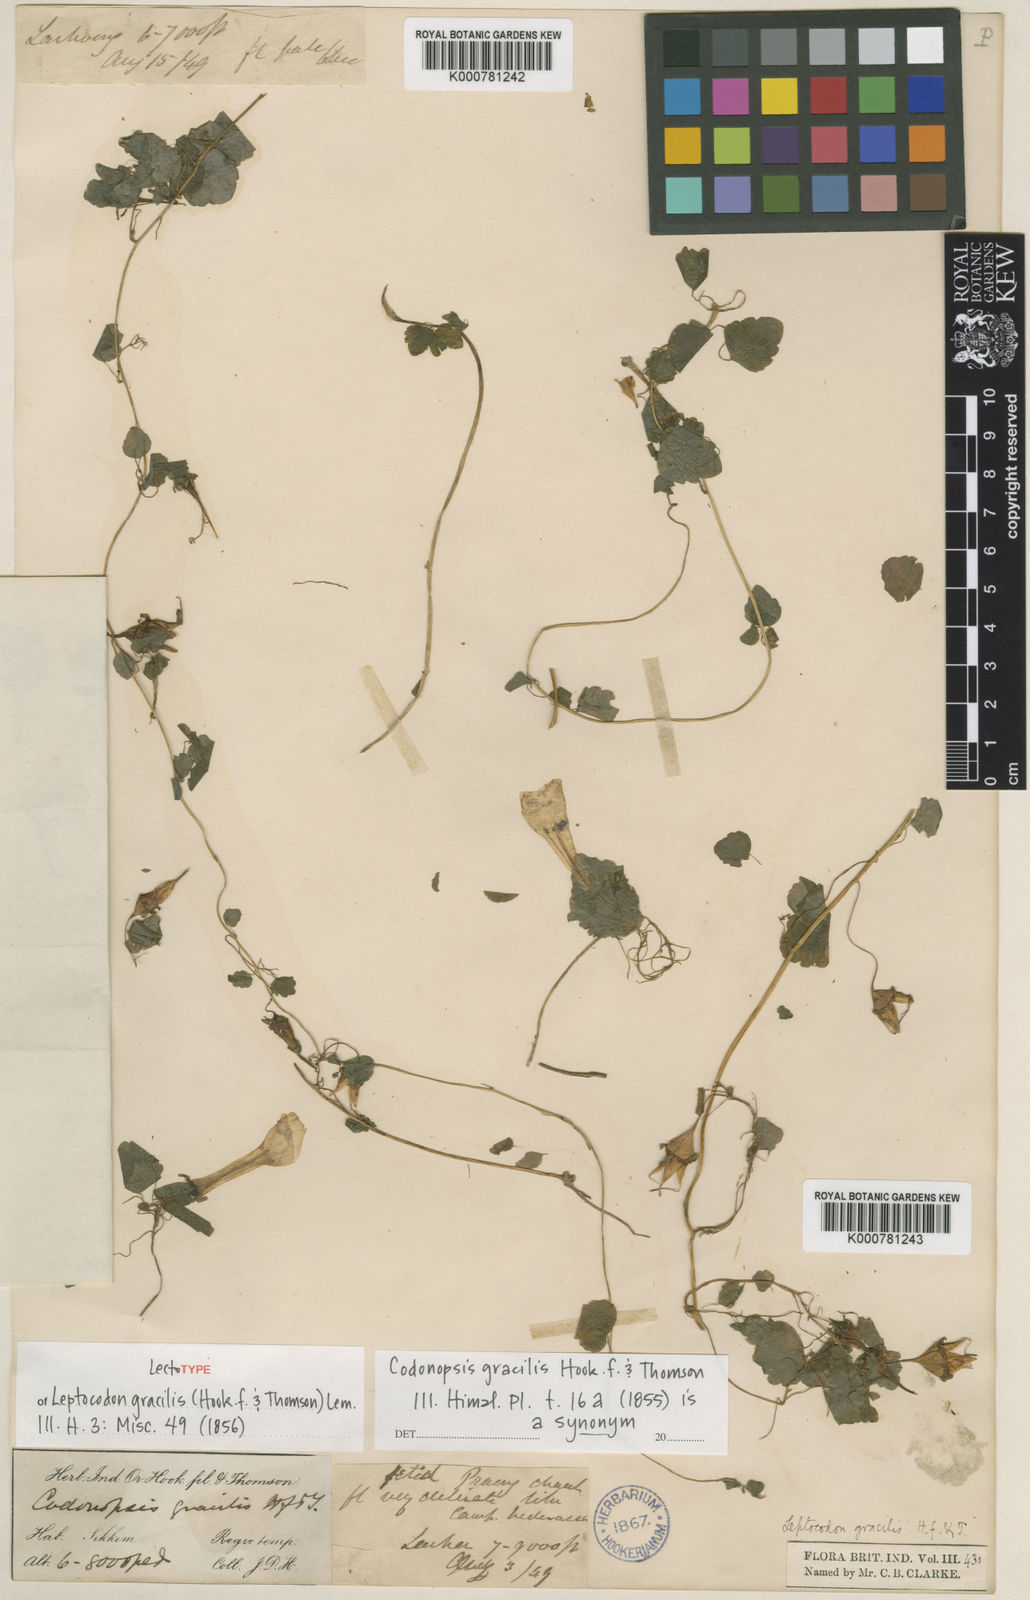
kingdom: Plantae
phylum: Tracheophyta
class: Magnoliopsida
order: Asterales
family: Campanulaceae
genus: Codonopsis
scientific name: Codonopsis gracilis
